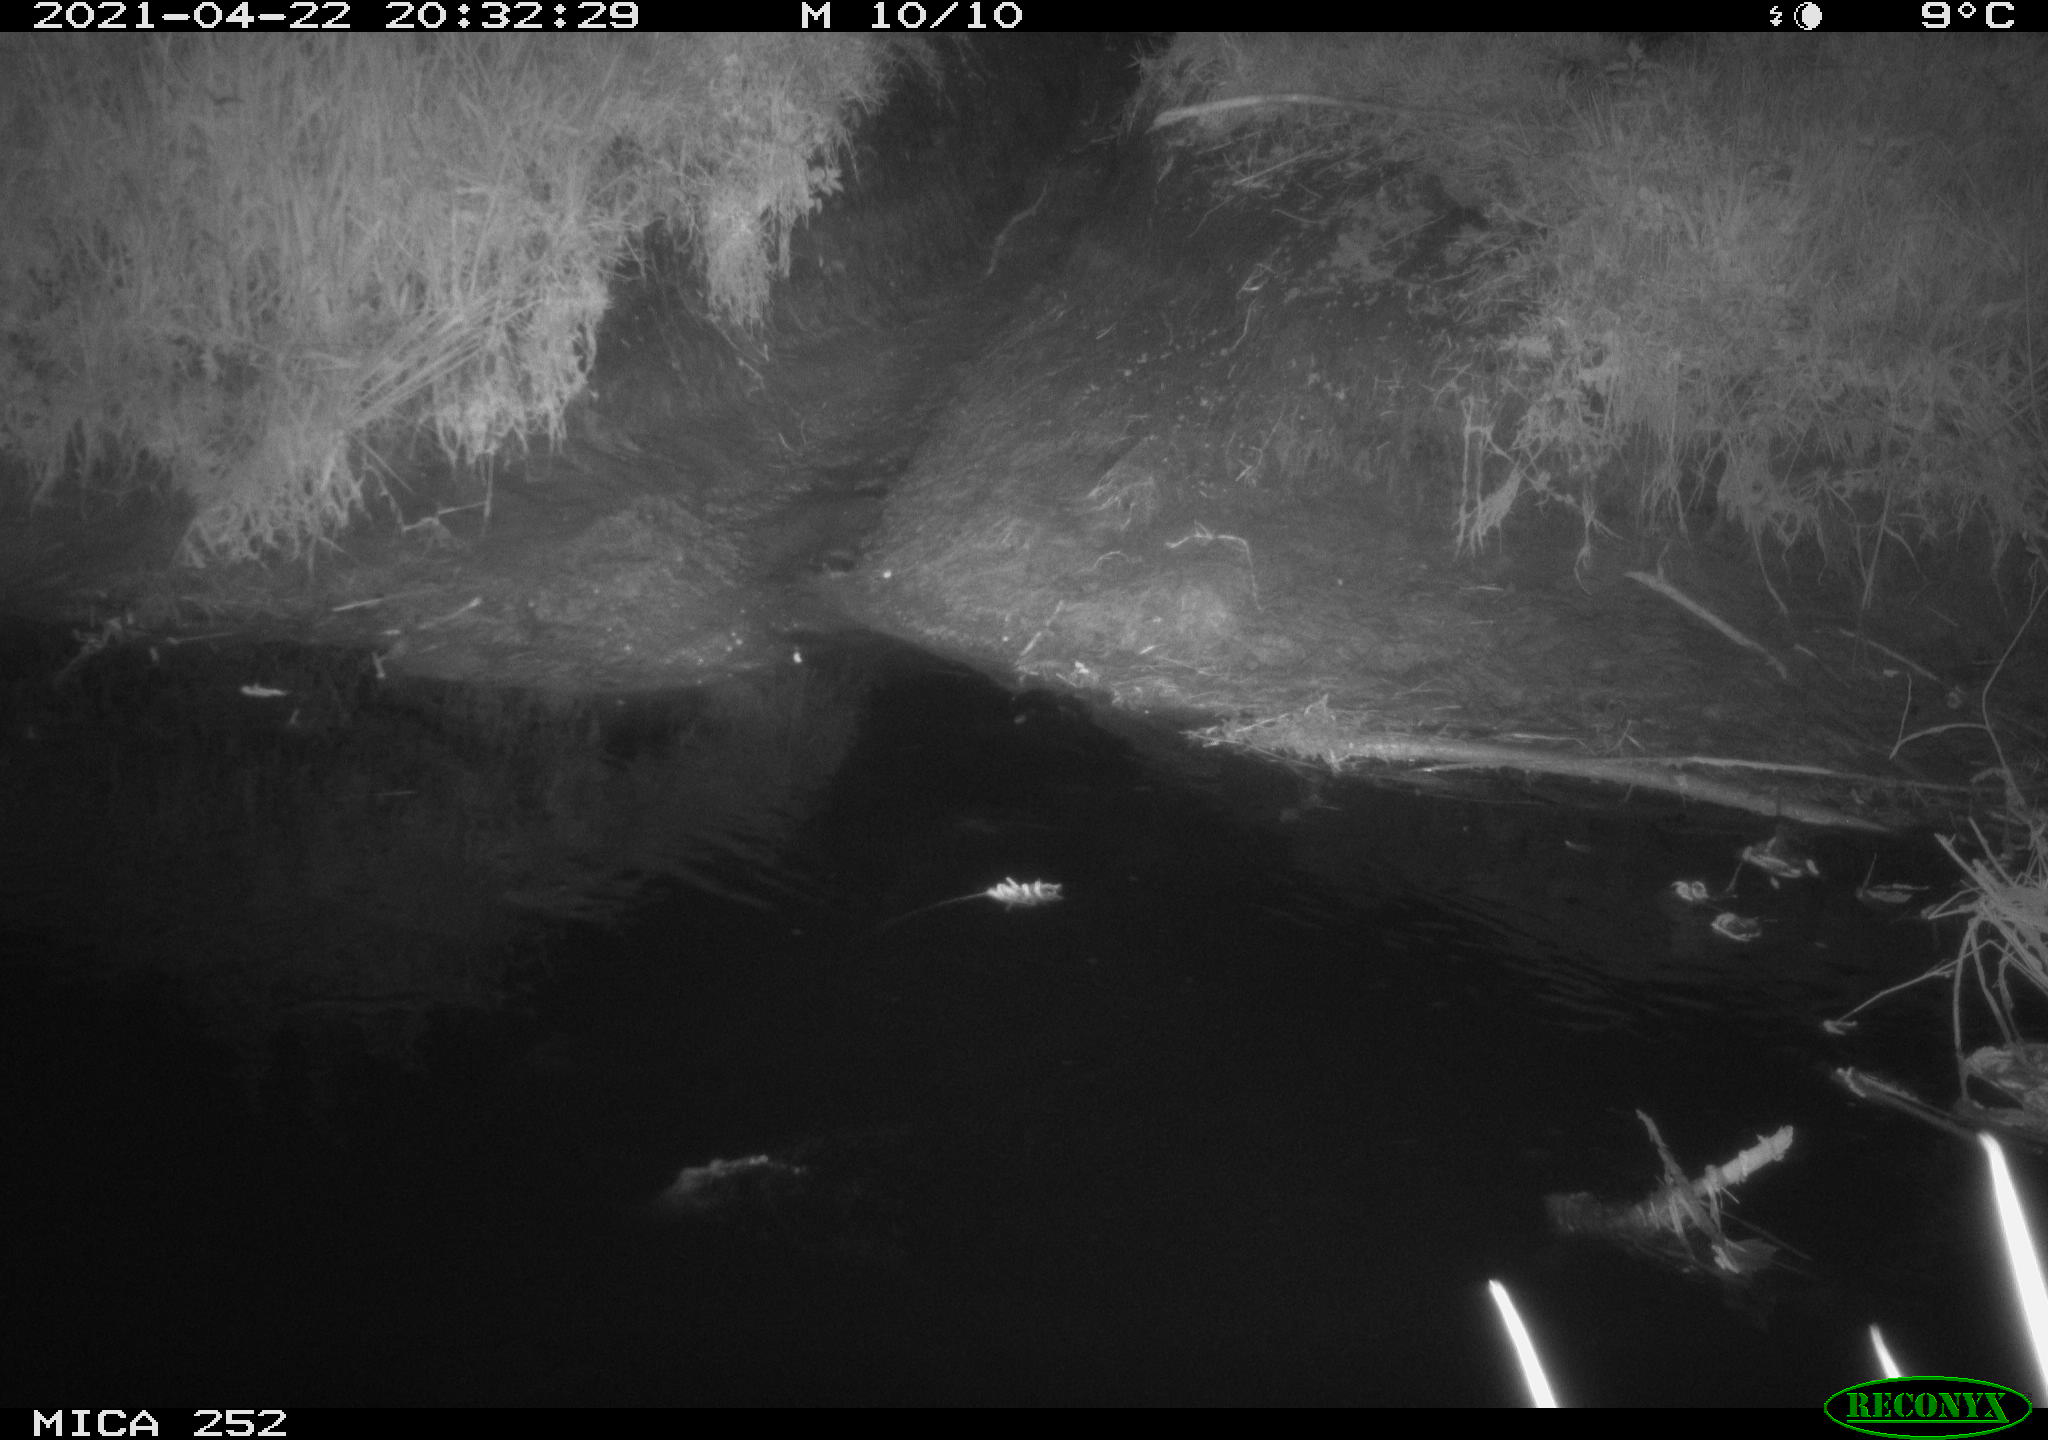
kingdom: Animalia
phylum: Chordata
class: Aves
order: Anseriformes
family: Anatidae
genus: Anas
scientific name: Anas platyrhynchos
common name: Mallard
